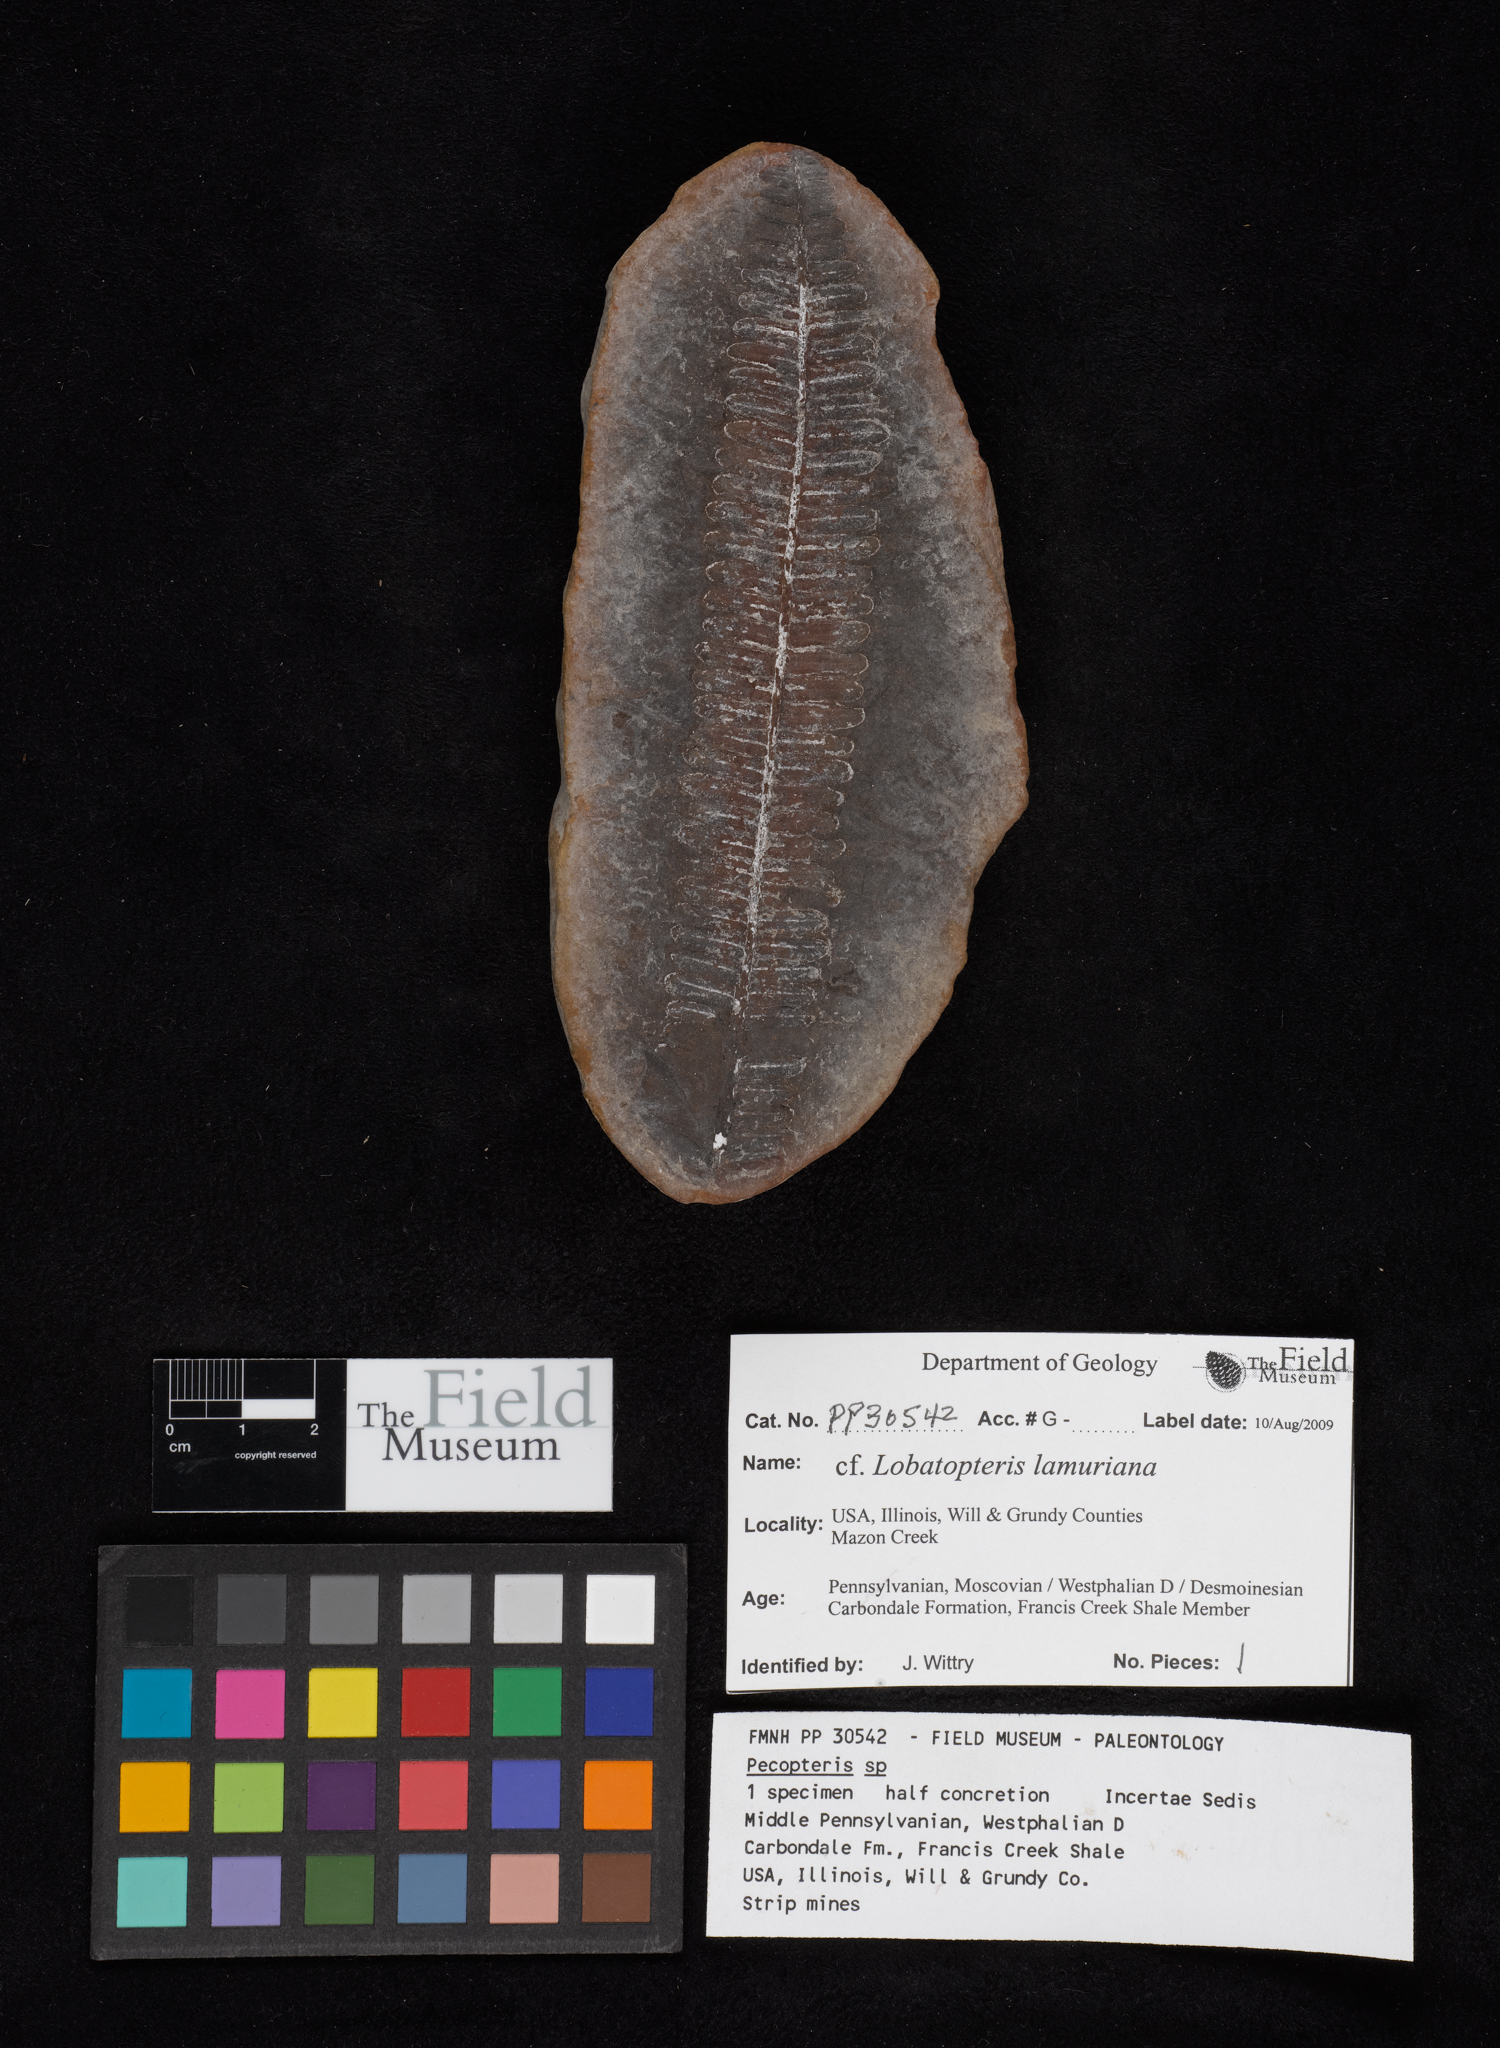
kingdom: Plantae
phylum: Tracheophyta
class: Polypodiopsida
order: Marattiales
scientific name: Marattiales
